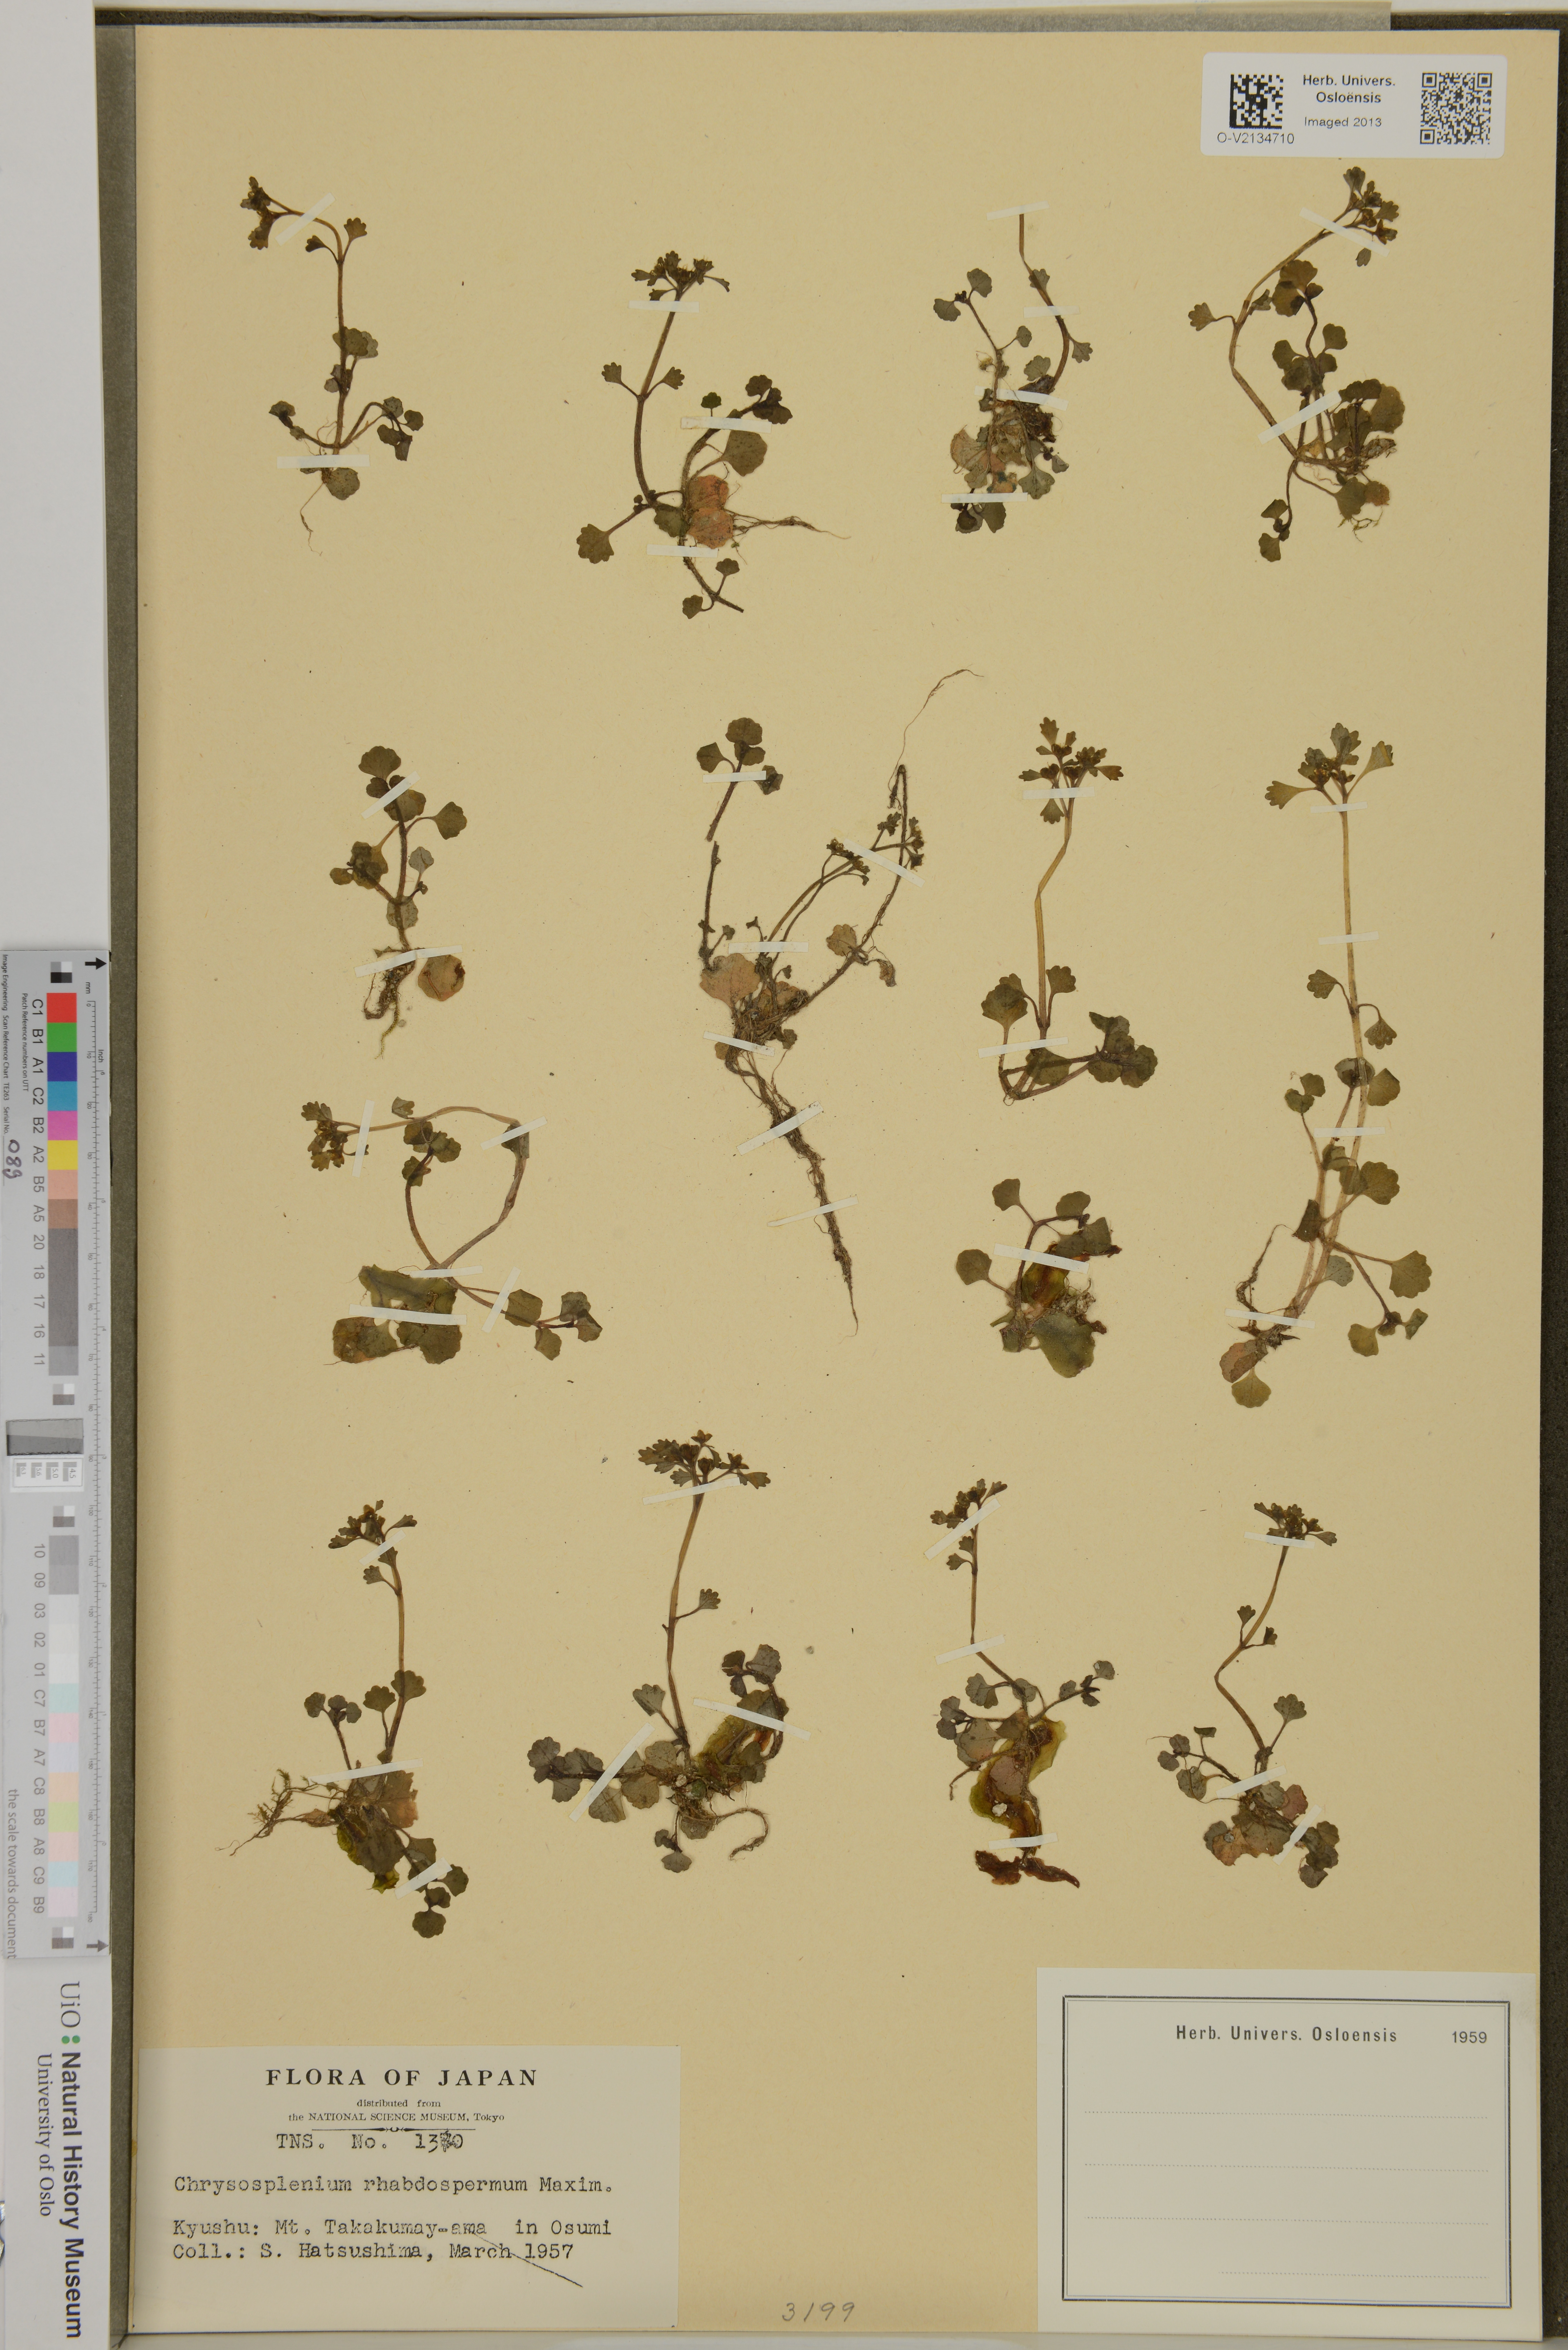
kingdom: Plantae
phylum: Tracheophyta
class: Magnoliopsida
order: Saxifragales
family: Saxifragaceae
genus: Chrysosplenium
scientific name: Chrysosplenium rhabdospermum
